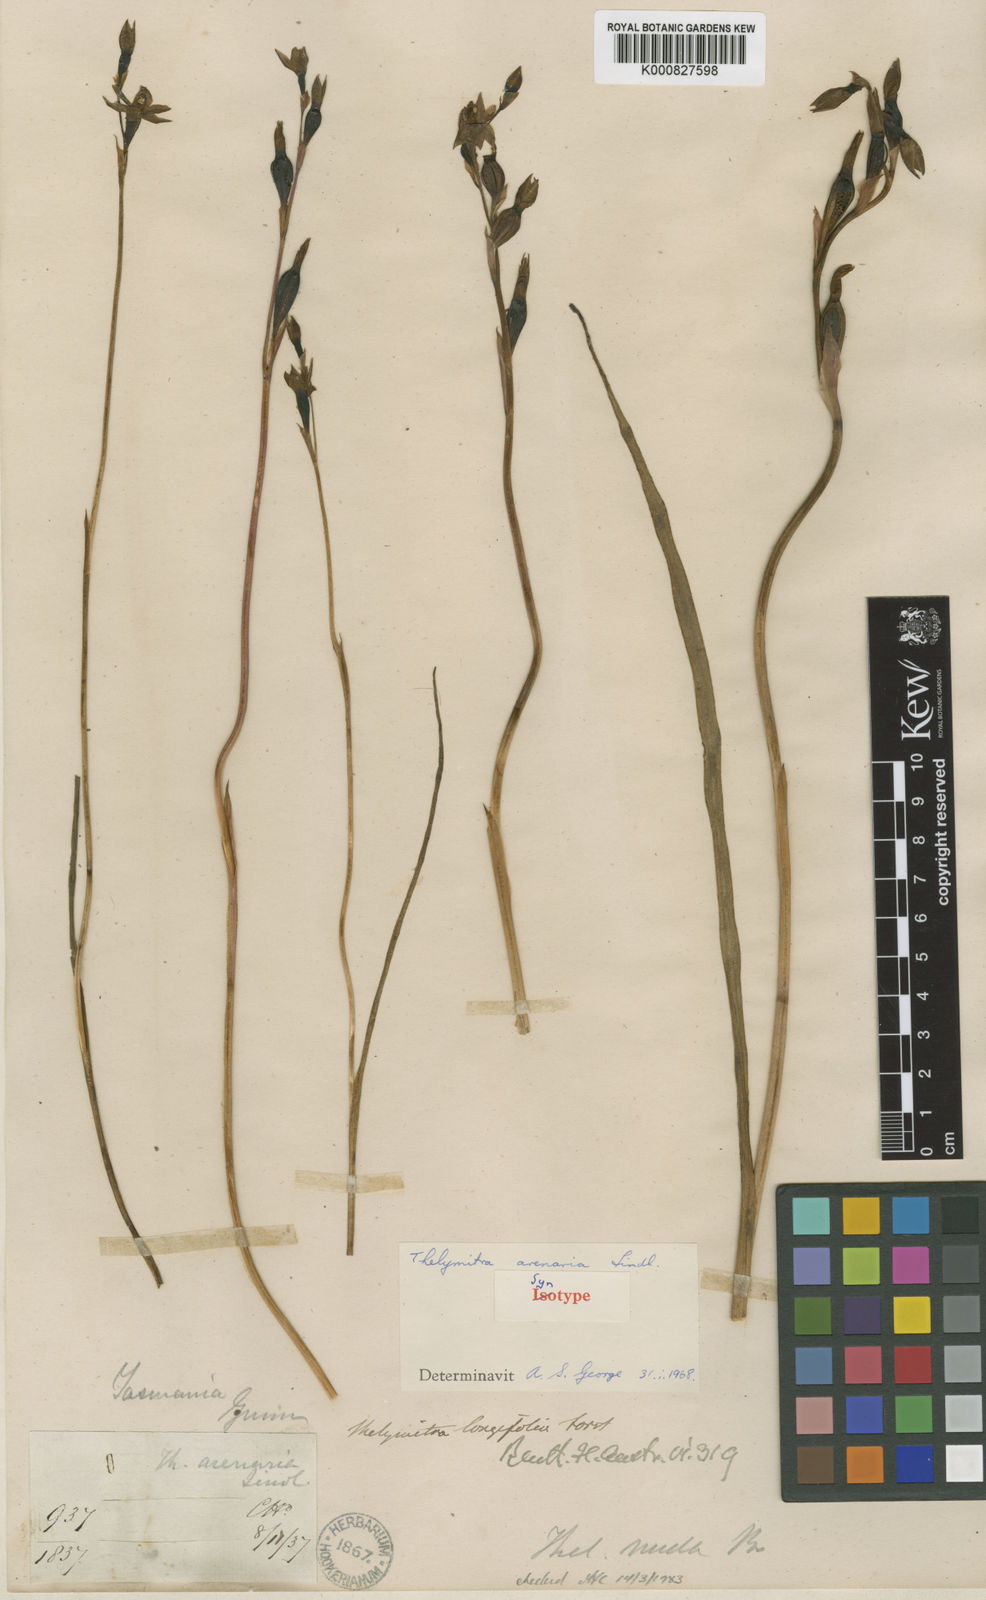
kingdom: Plantae
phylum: Tracheophyta
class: Liliopsida
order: Asparagales
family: Orchidaceae
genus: Thelymitra
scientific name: Thelymitra arenaria
